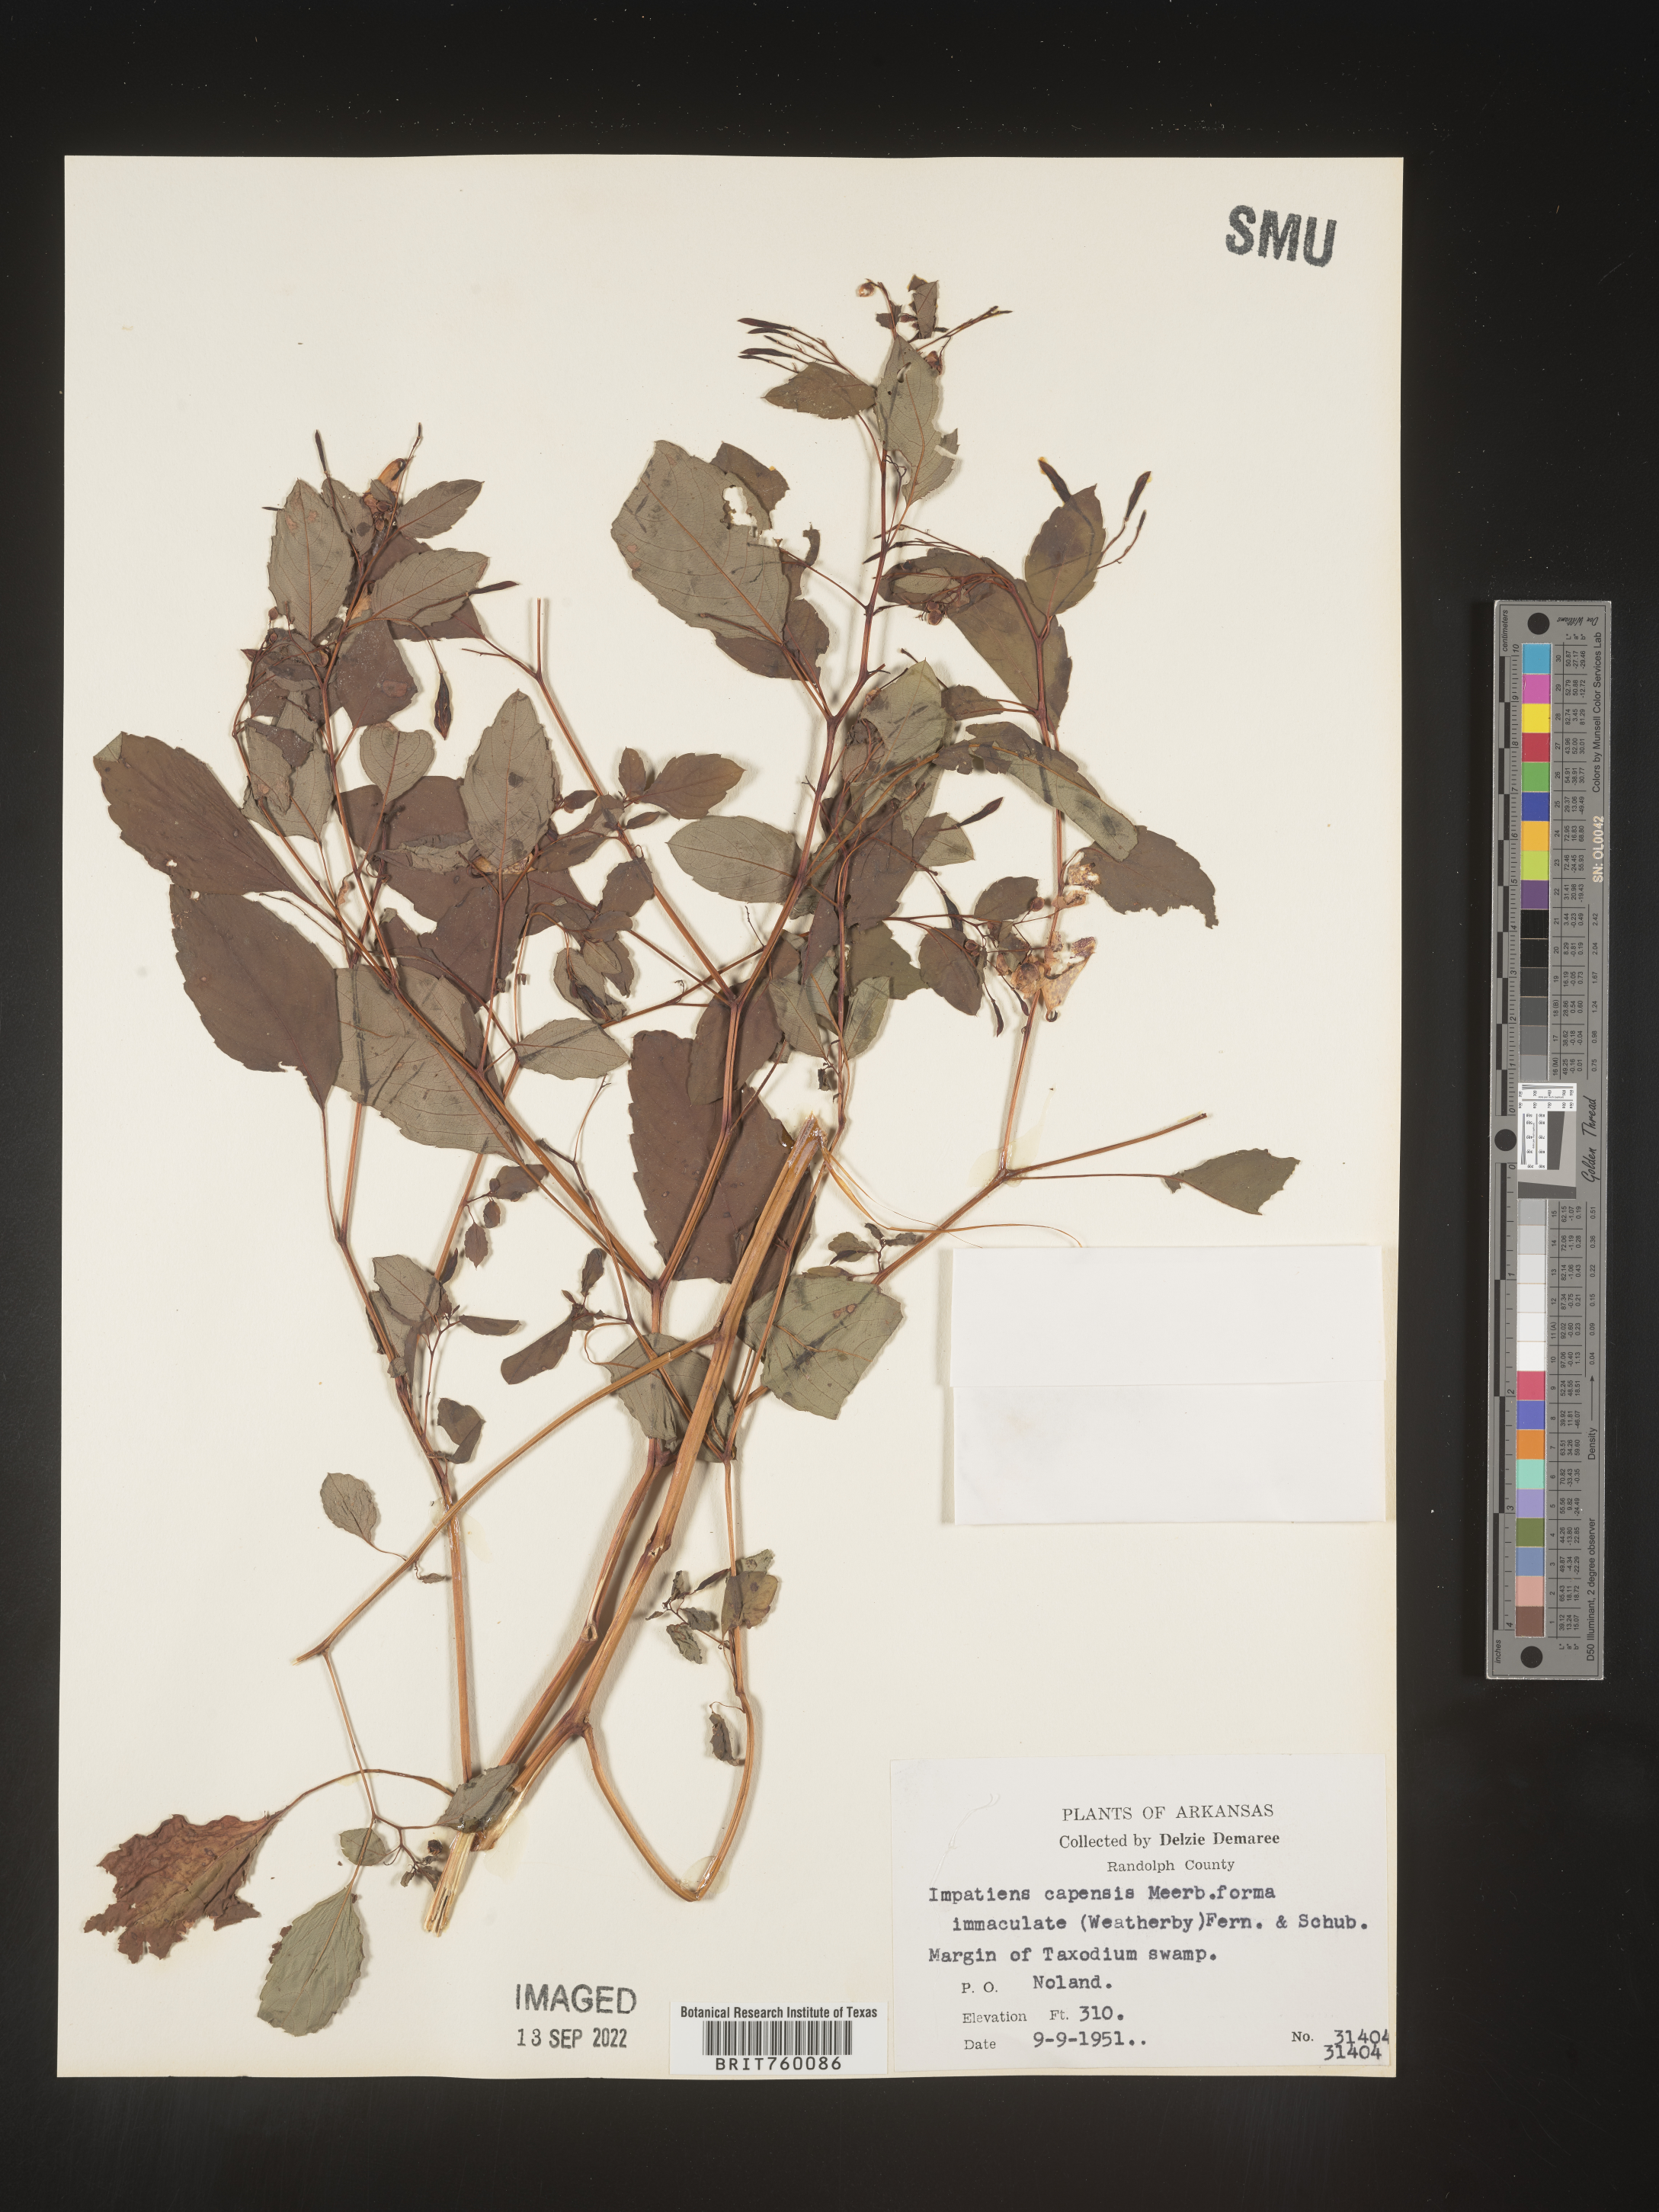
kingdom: Plantae
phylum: Tracheophyta
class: Magnoliopsida
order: Ericales
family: Balsaminaceae
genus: Impatiens
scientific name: Impatiens capensis
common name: Orange balsam
